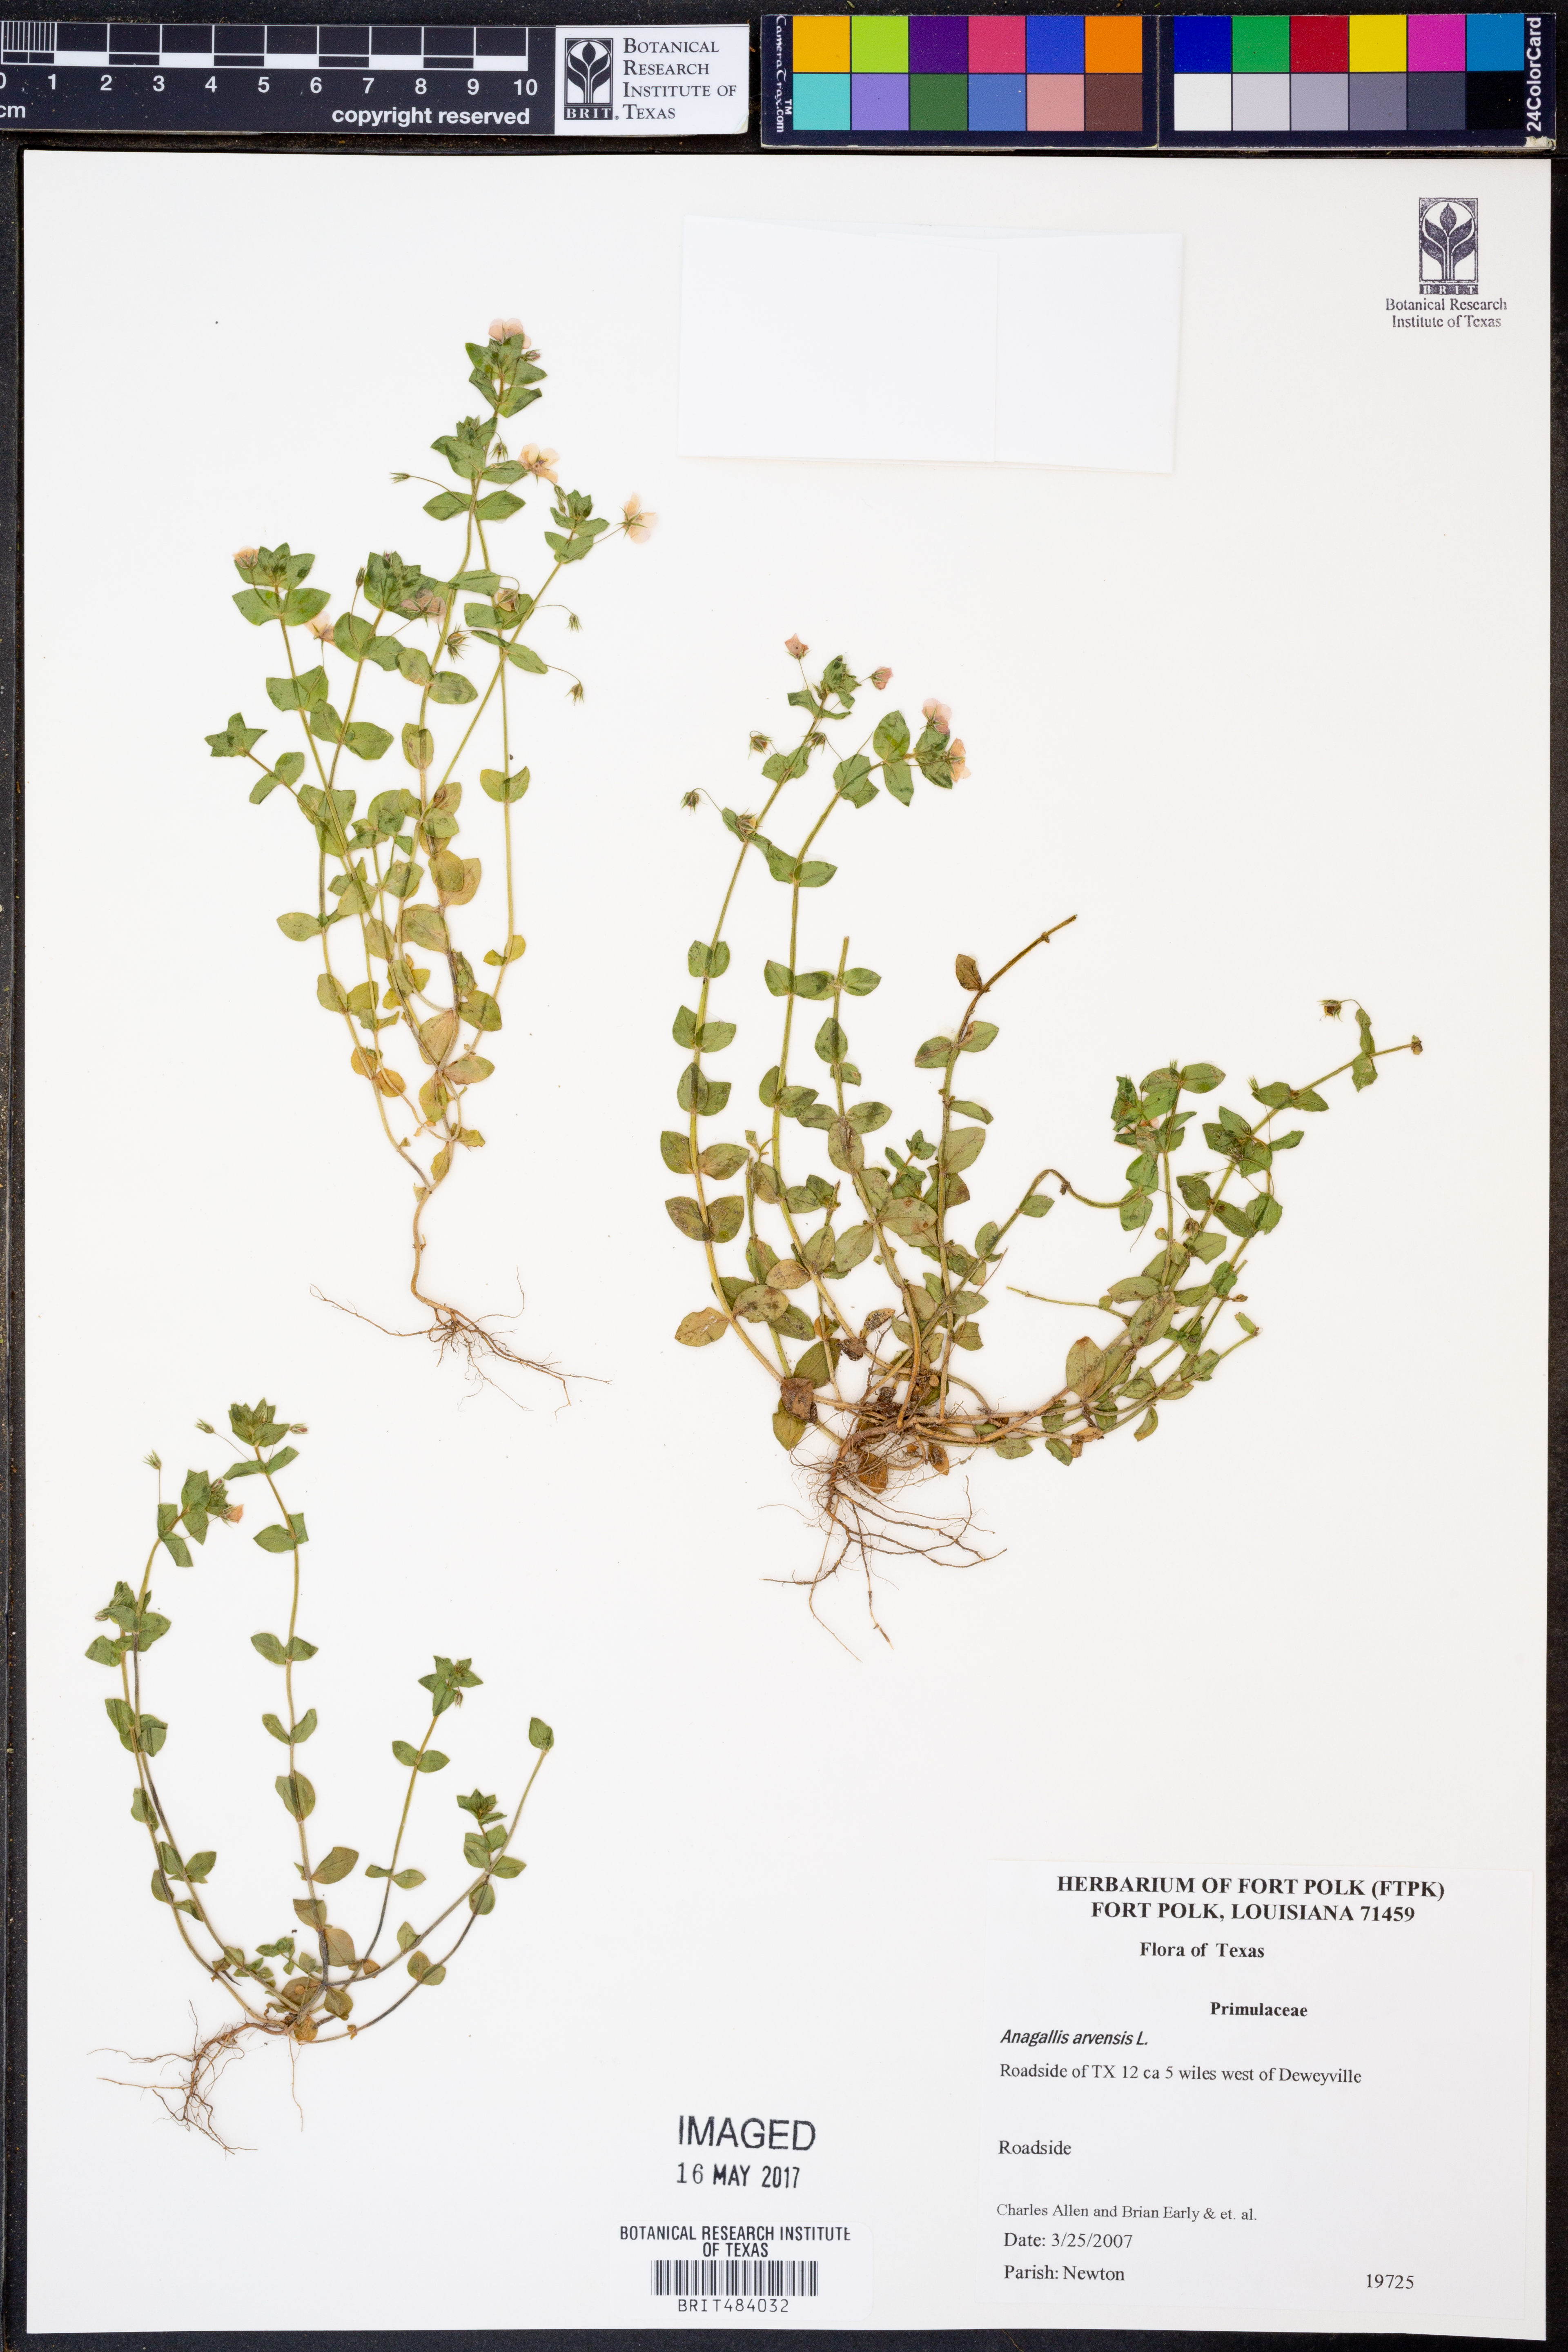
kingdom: Plantae
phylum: Tracheophyta
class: Magnoliopsida
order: Ericales
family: Primulaceae
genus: Lysimachia
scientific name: Lysimachia arvensis
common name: Scarlet pimpernel
